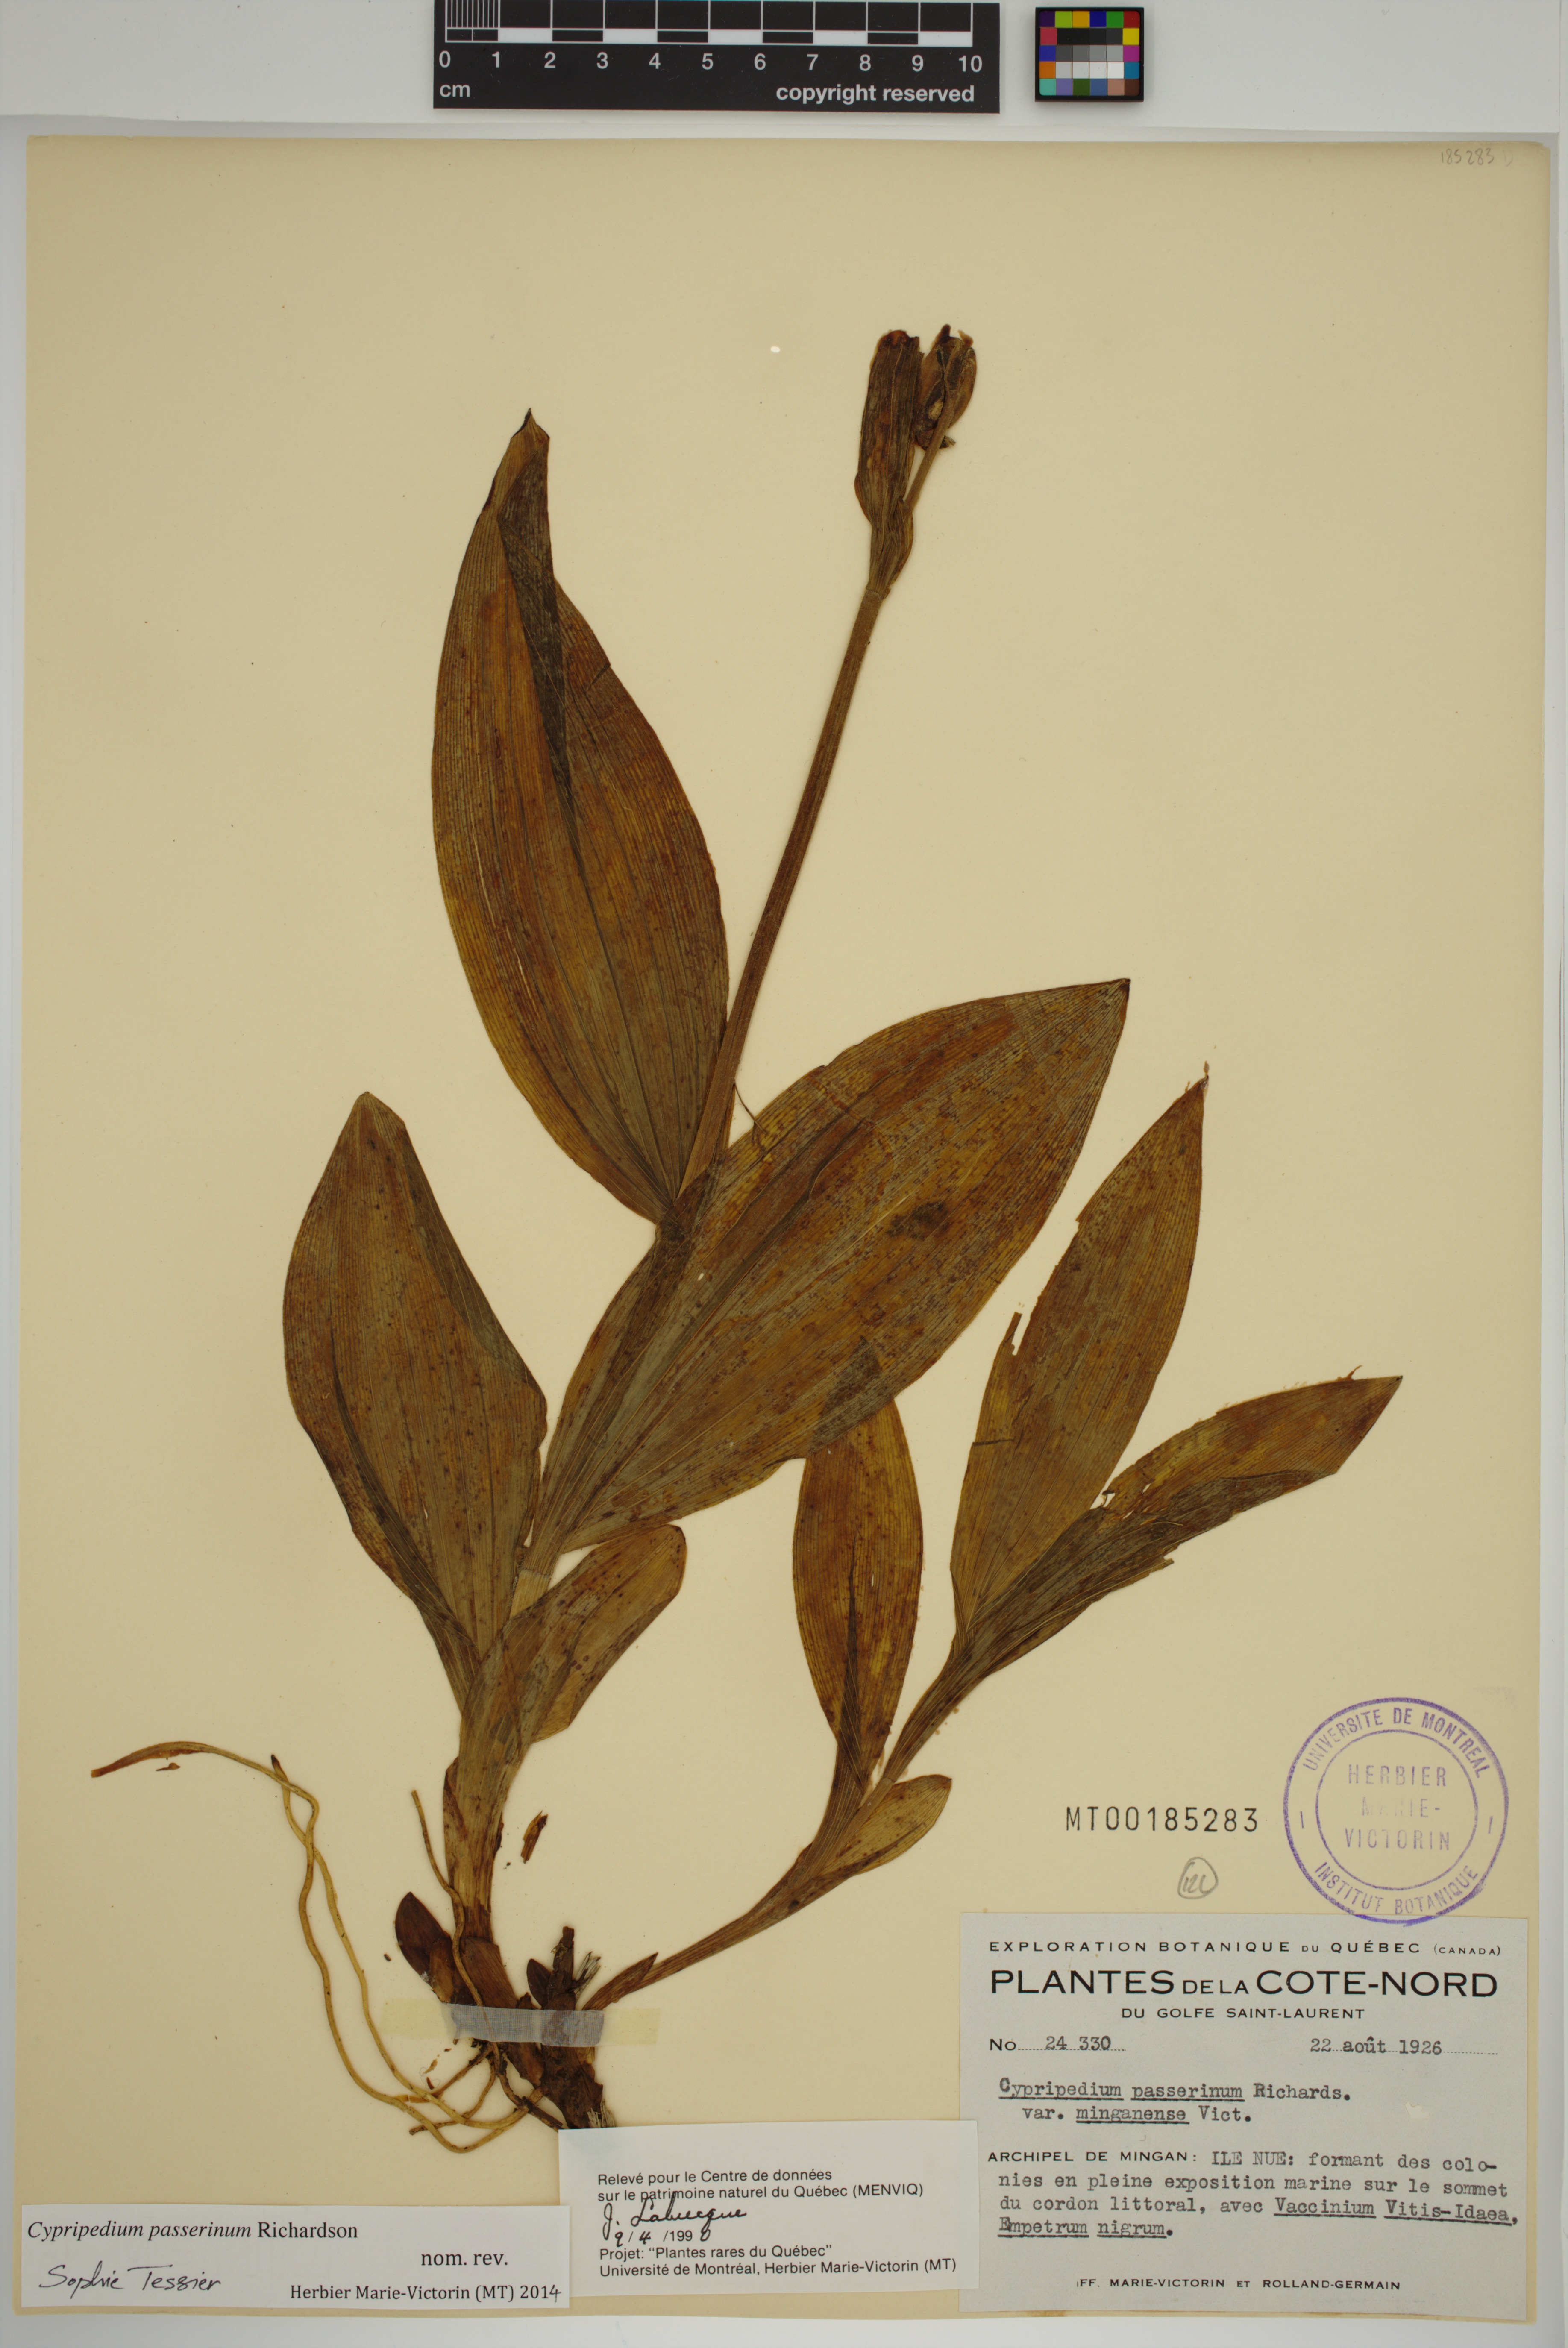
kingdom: Plantae
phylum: Tracheophyta
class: Liliopsida
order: Asparagales
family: Orchidaceae
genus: Cypripedium
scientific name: Cypripedium passerinum
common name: Sparrow's-egg lady's-slipper
